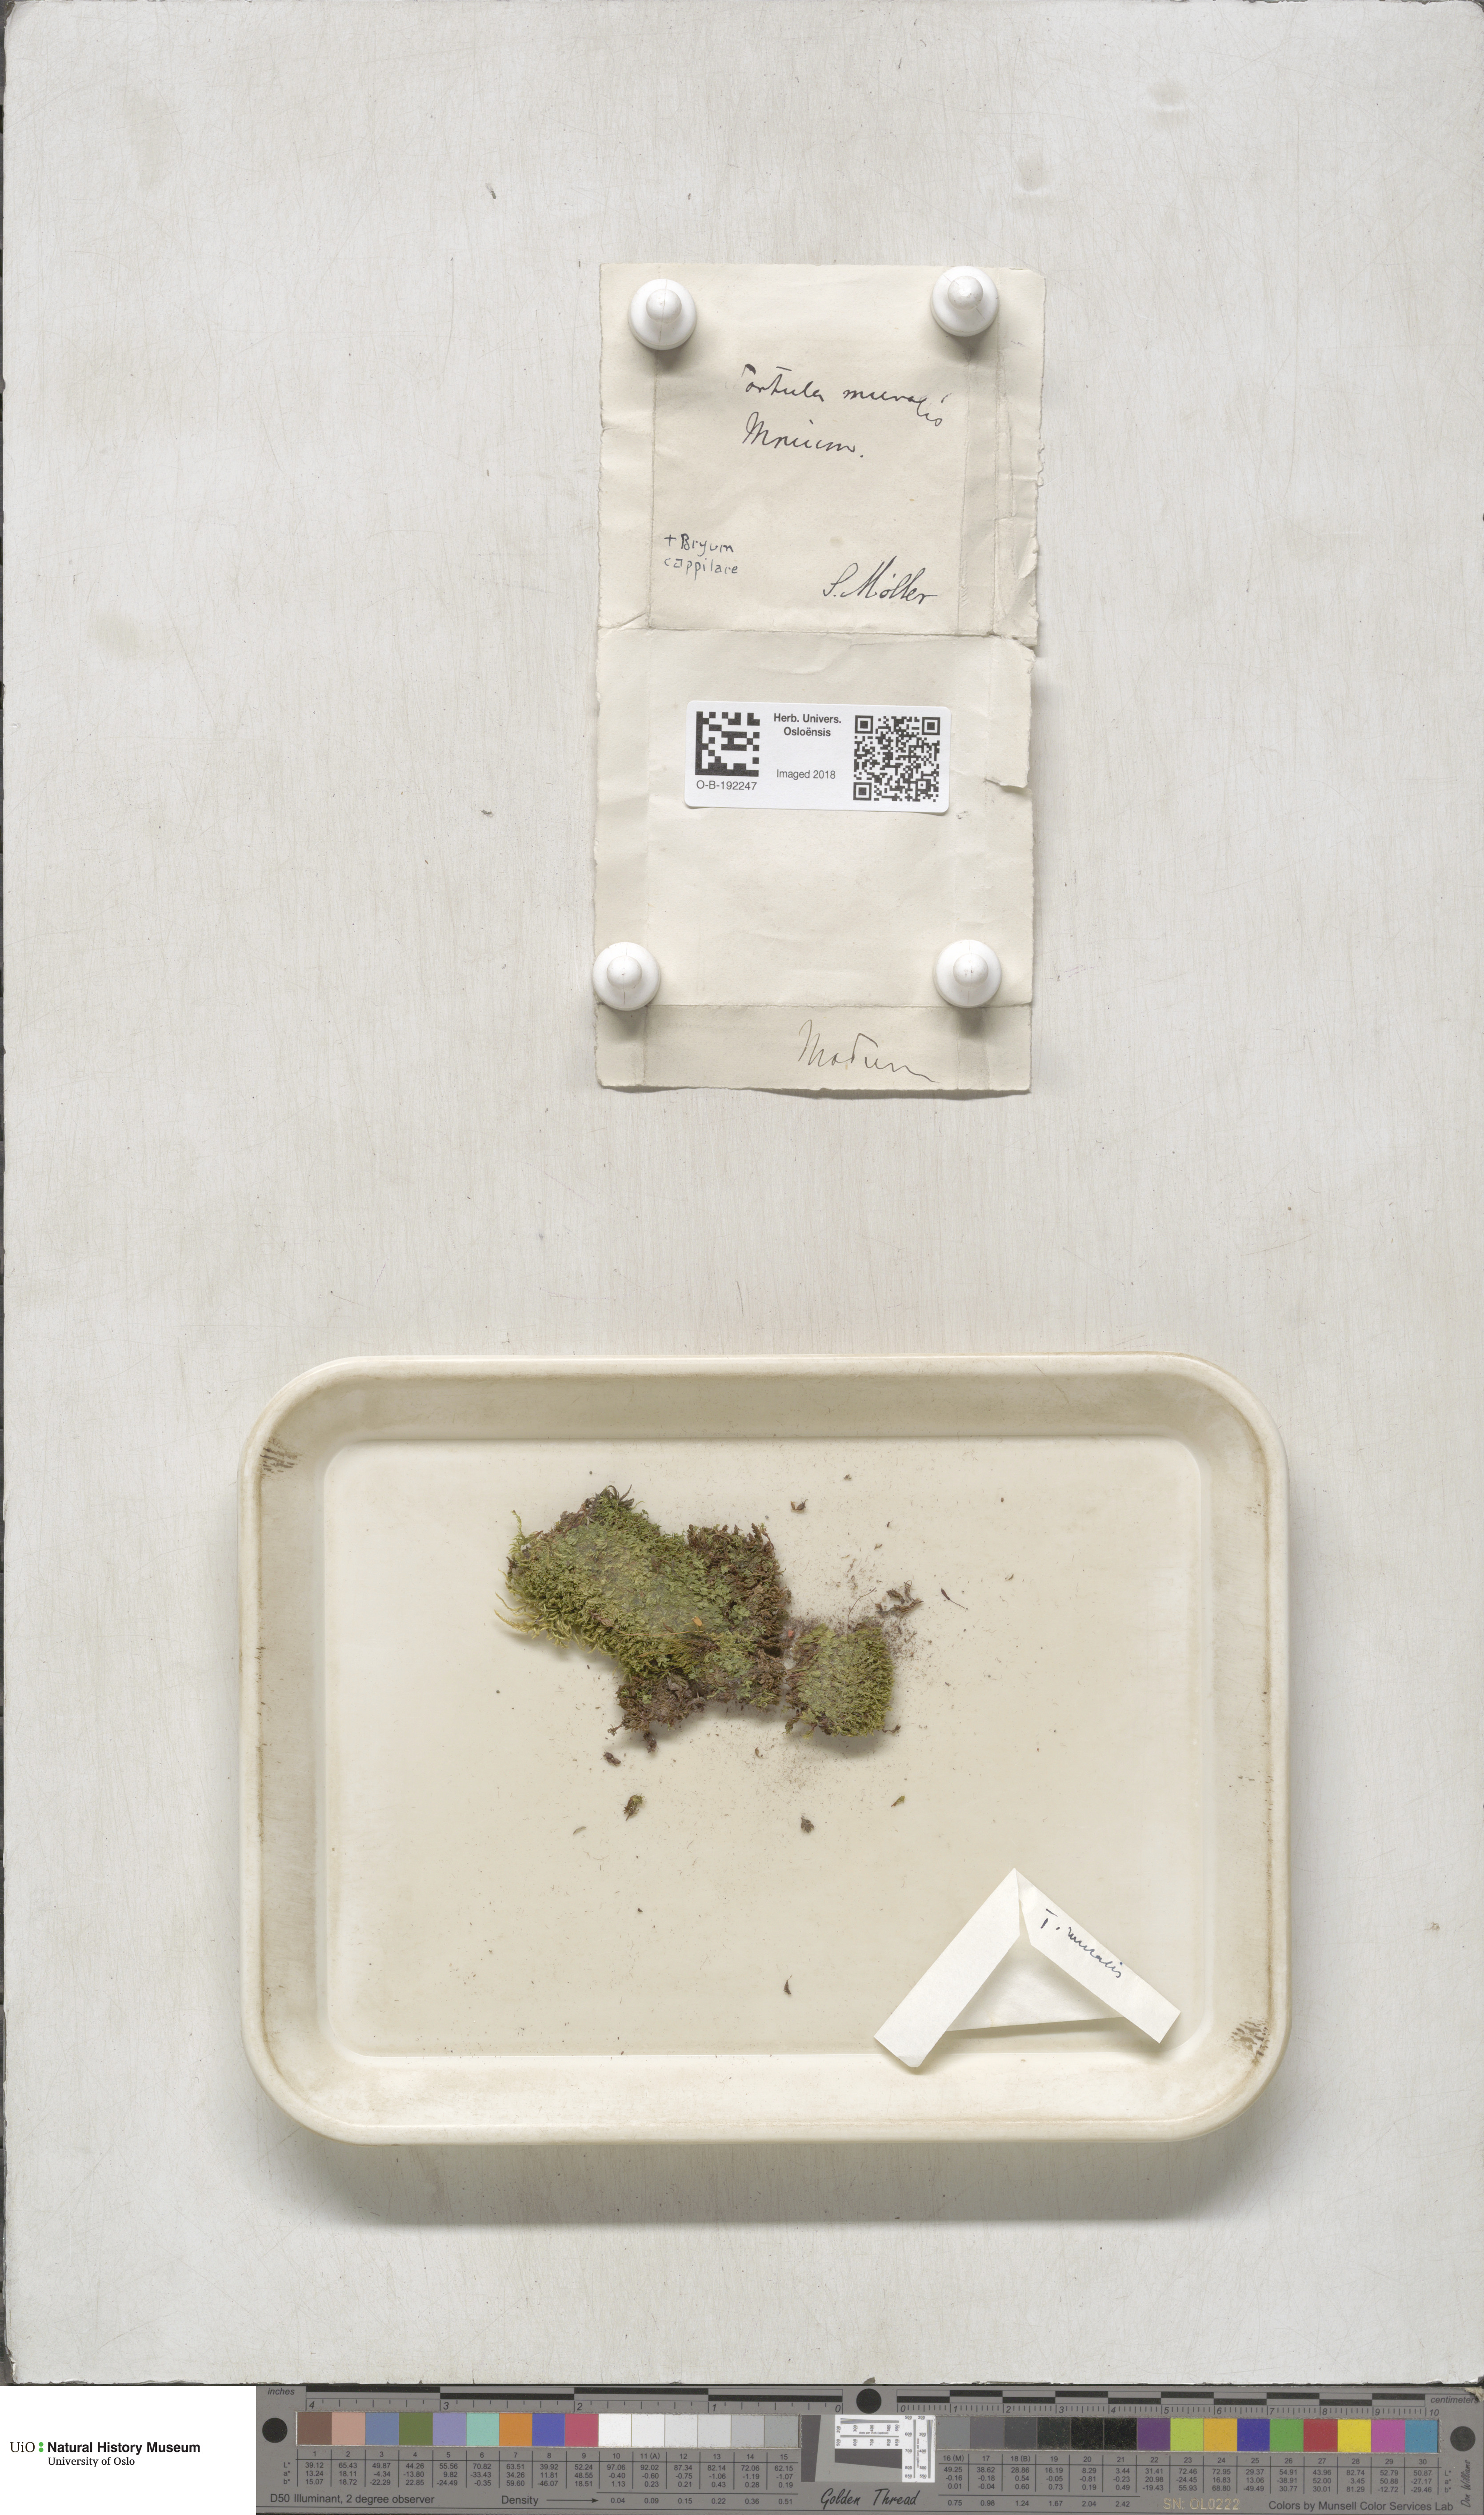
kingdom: Plantae
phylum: Bryophyta
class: Bryopsida
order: Pottiales
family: Pottiaceae
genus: Tortula
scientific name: Tortula muralis
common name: Wall screw-moss
